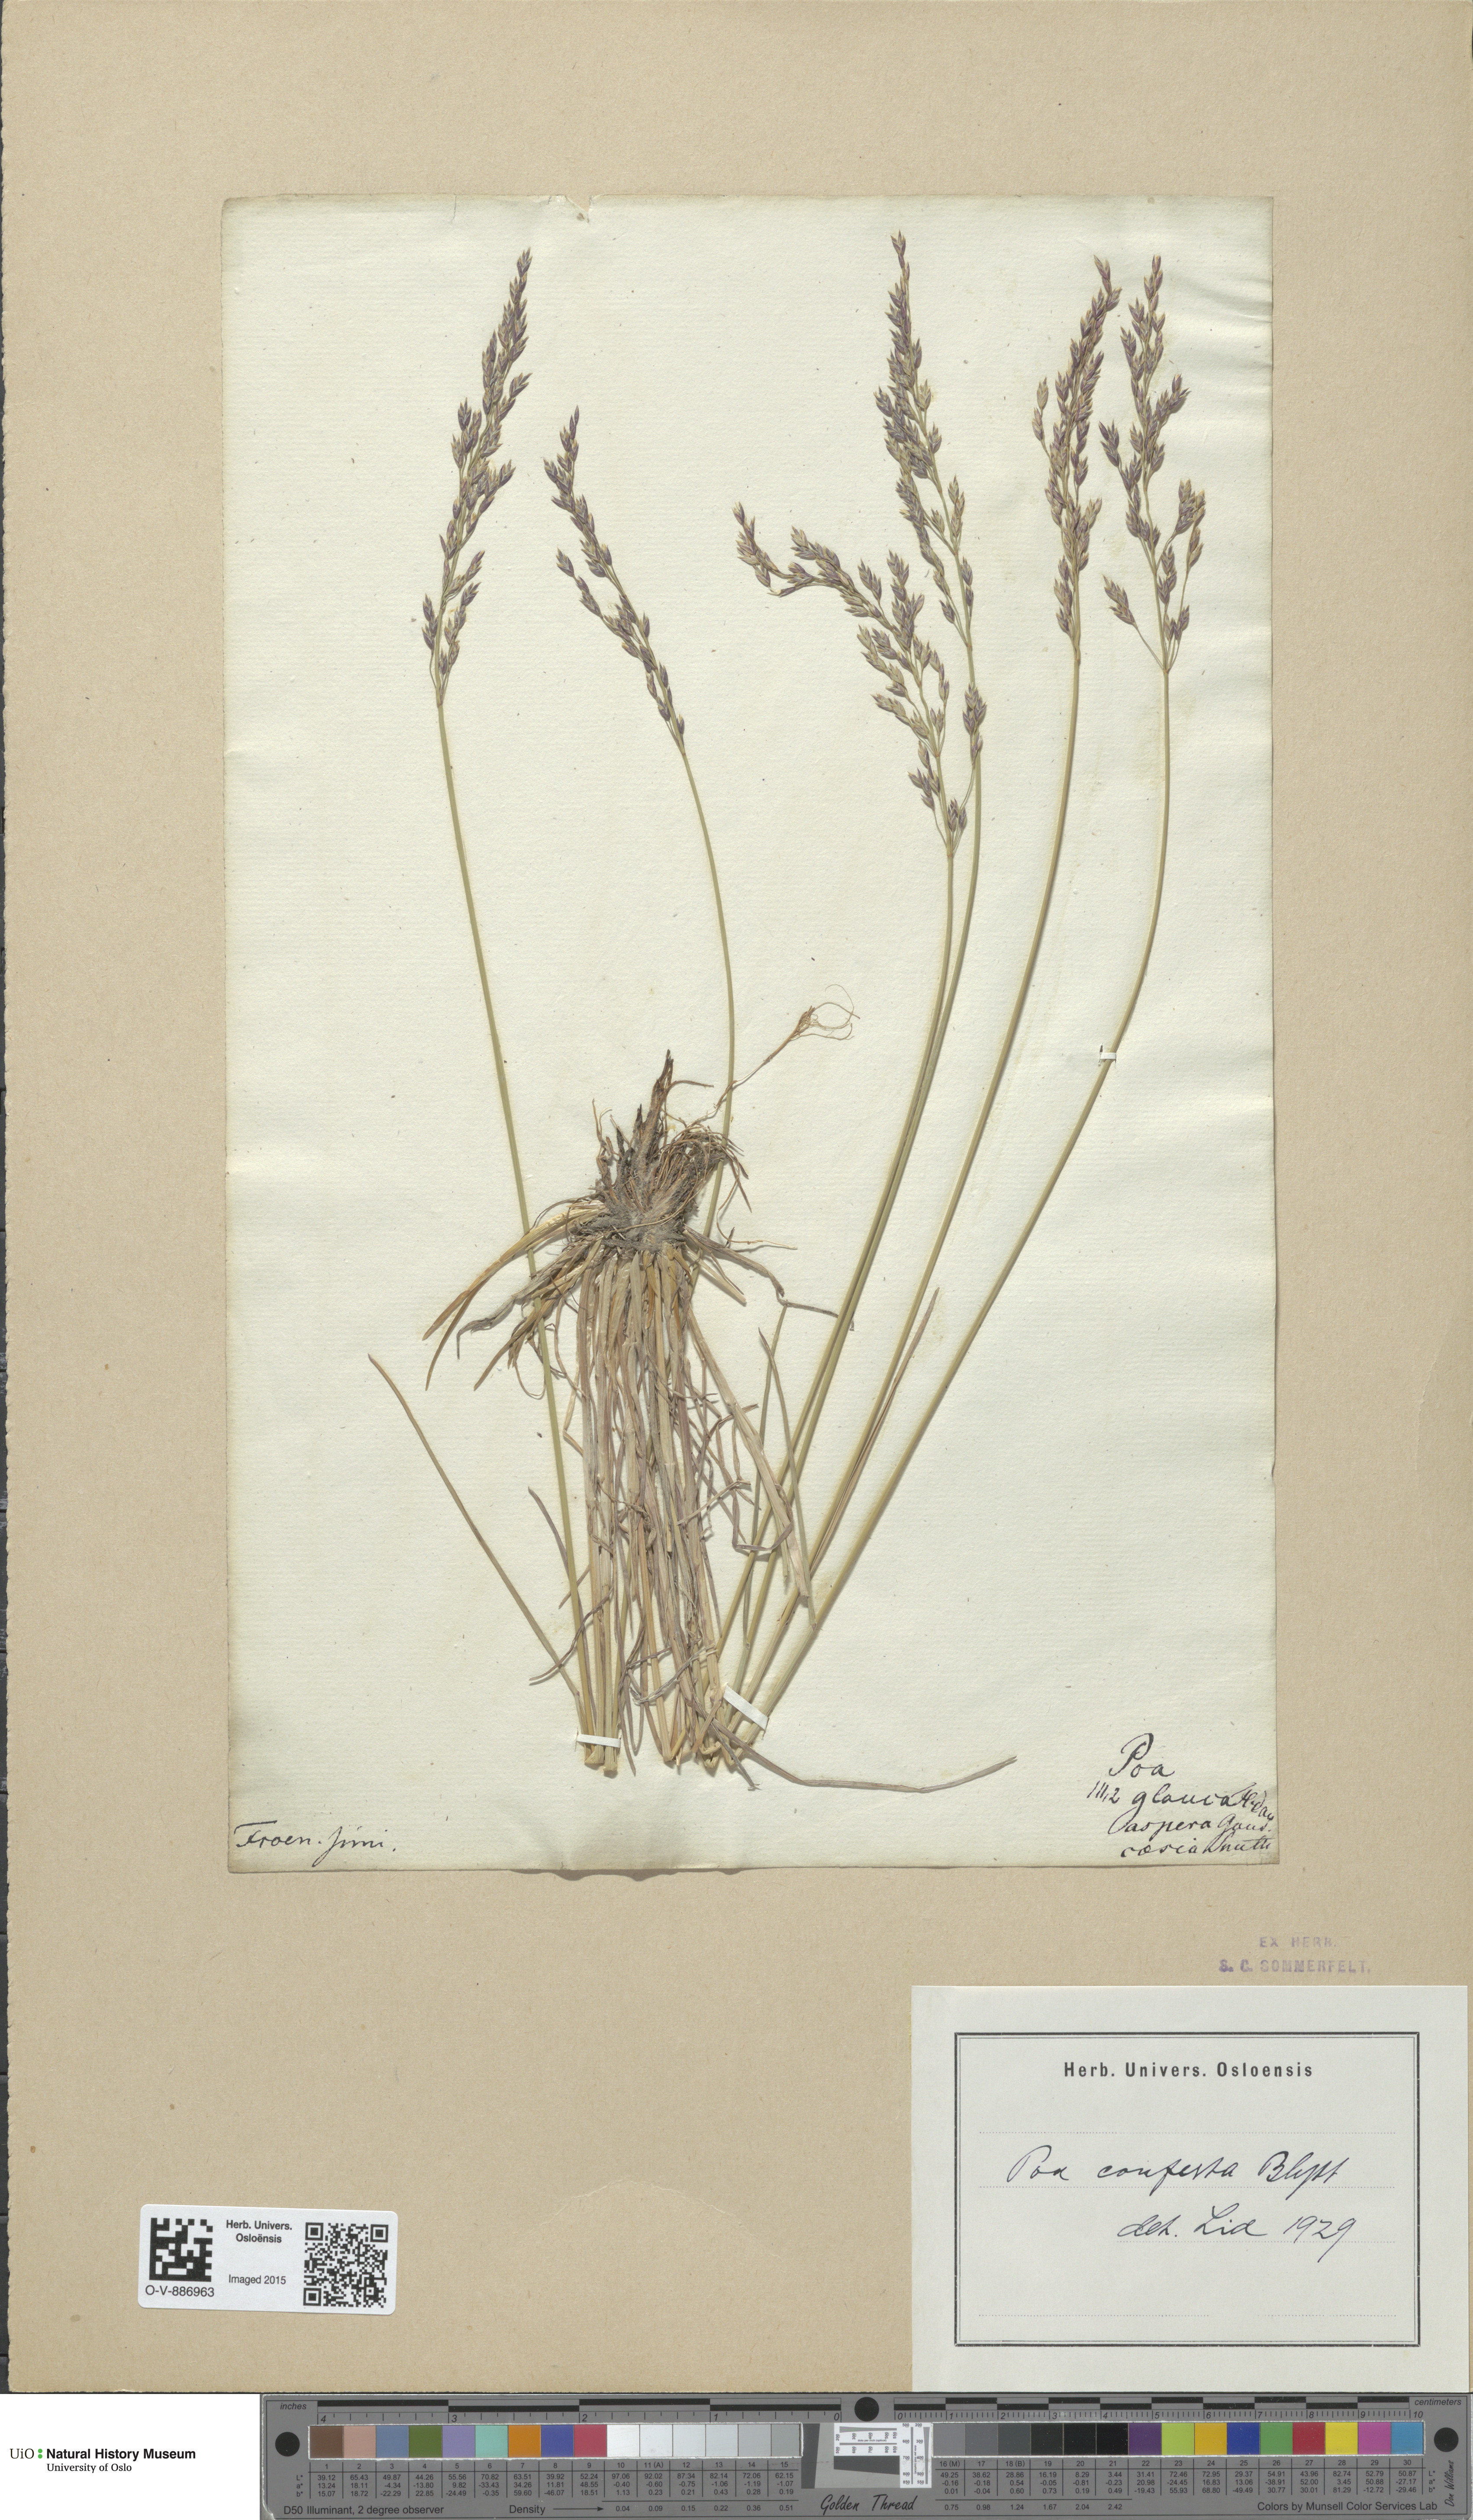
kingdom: Plantae
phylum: Tracheophyta
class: Liliopsida
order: Poales
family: Poaceae
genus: Poa
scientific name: Poa glauca
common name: Glaucous bluegrass
